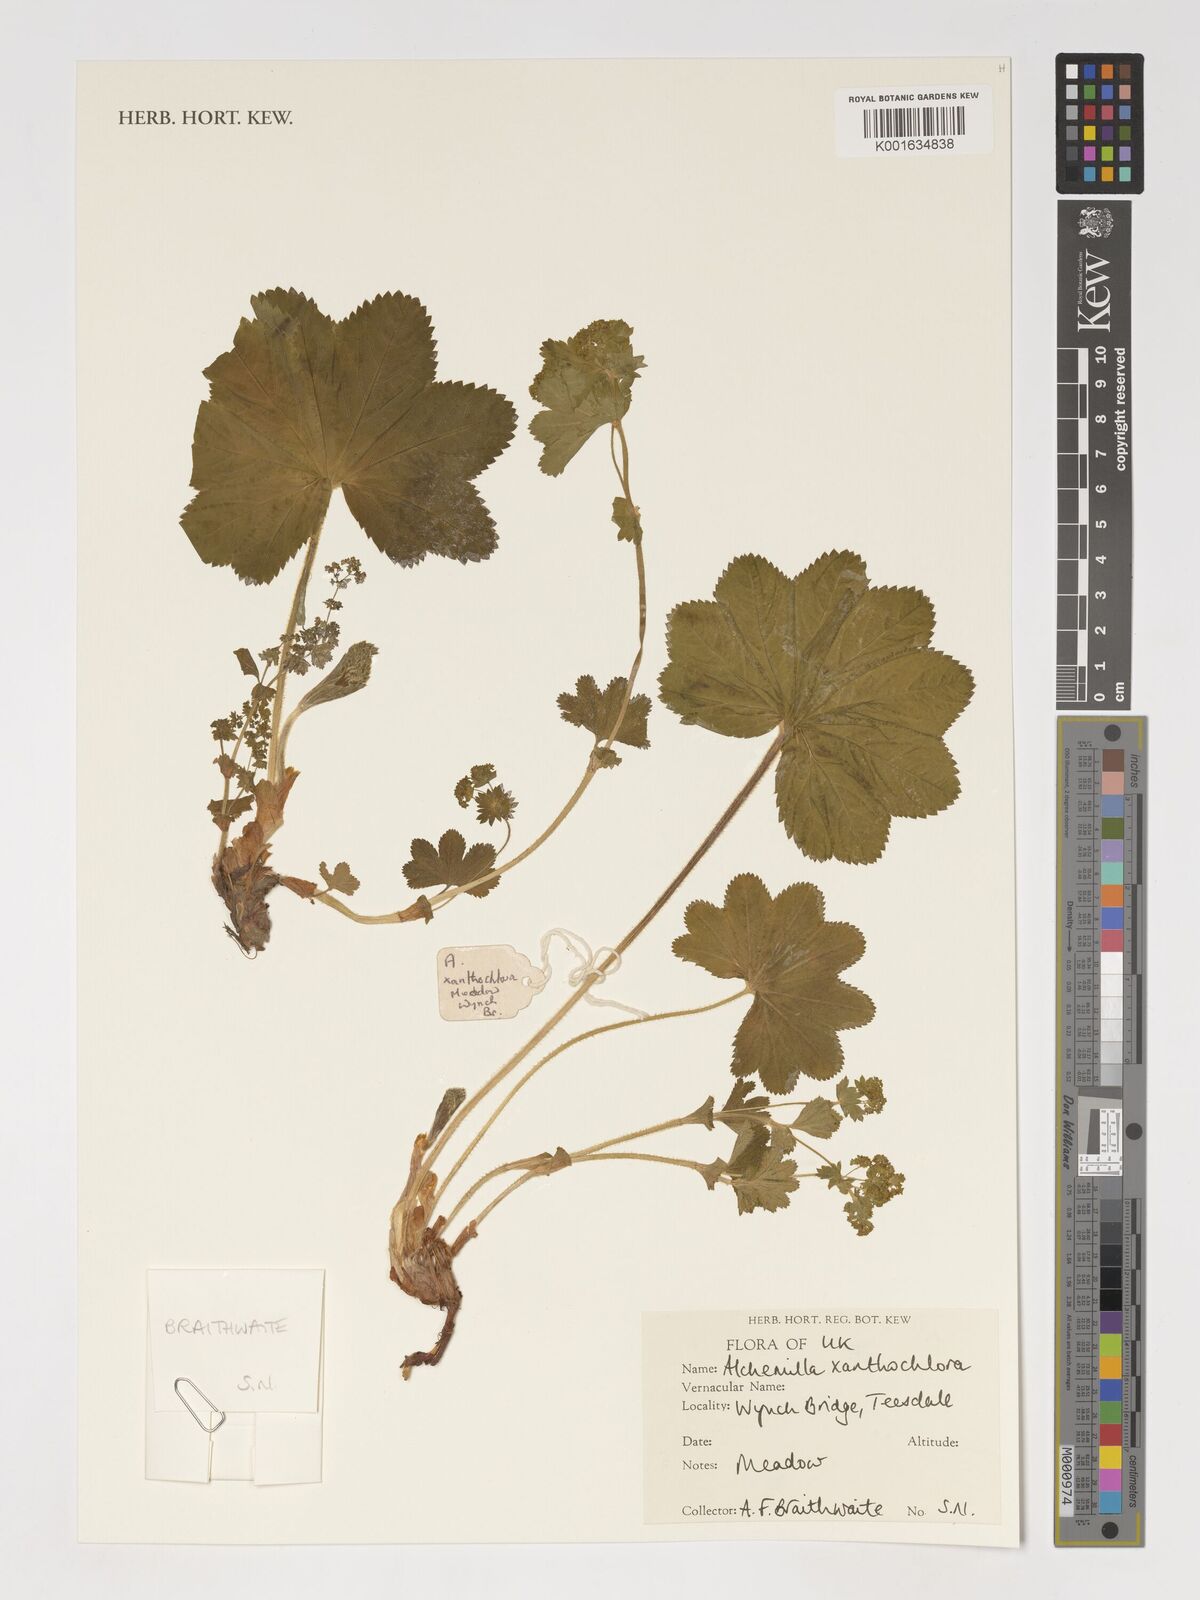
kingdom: Plantae
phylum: Tracheophyta
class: Magnoliopsida
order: Rosales
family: Rosaceae
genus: Alchemilla
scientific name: Alchemilla xanthochlora
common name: Intermediate lady's-mantle
